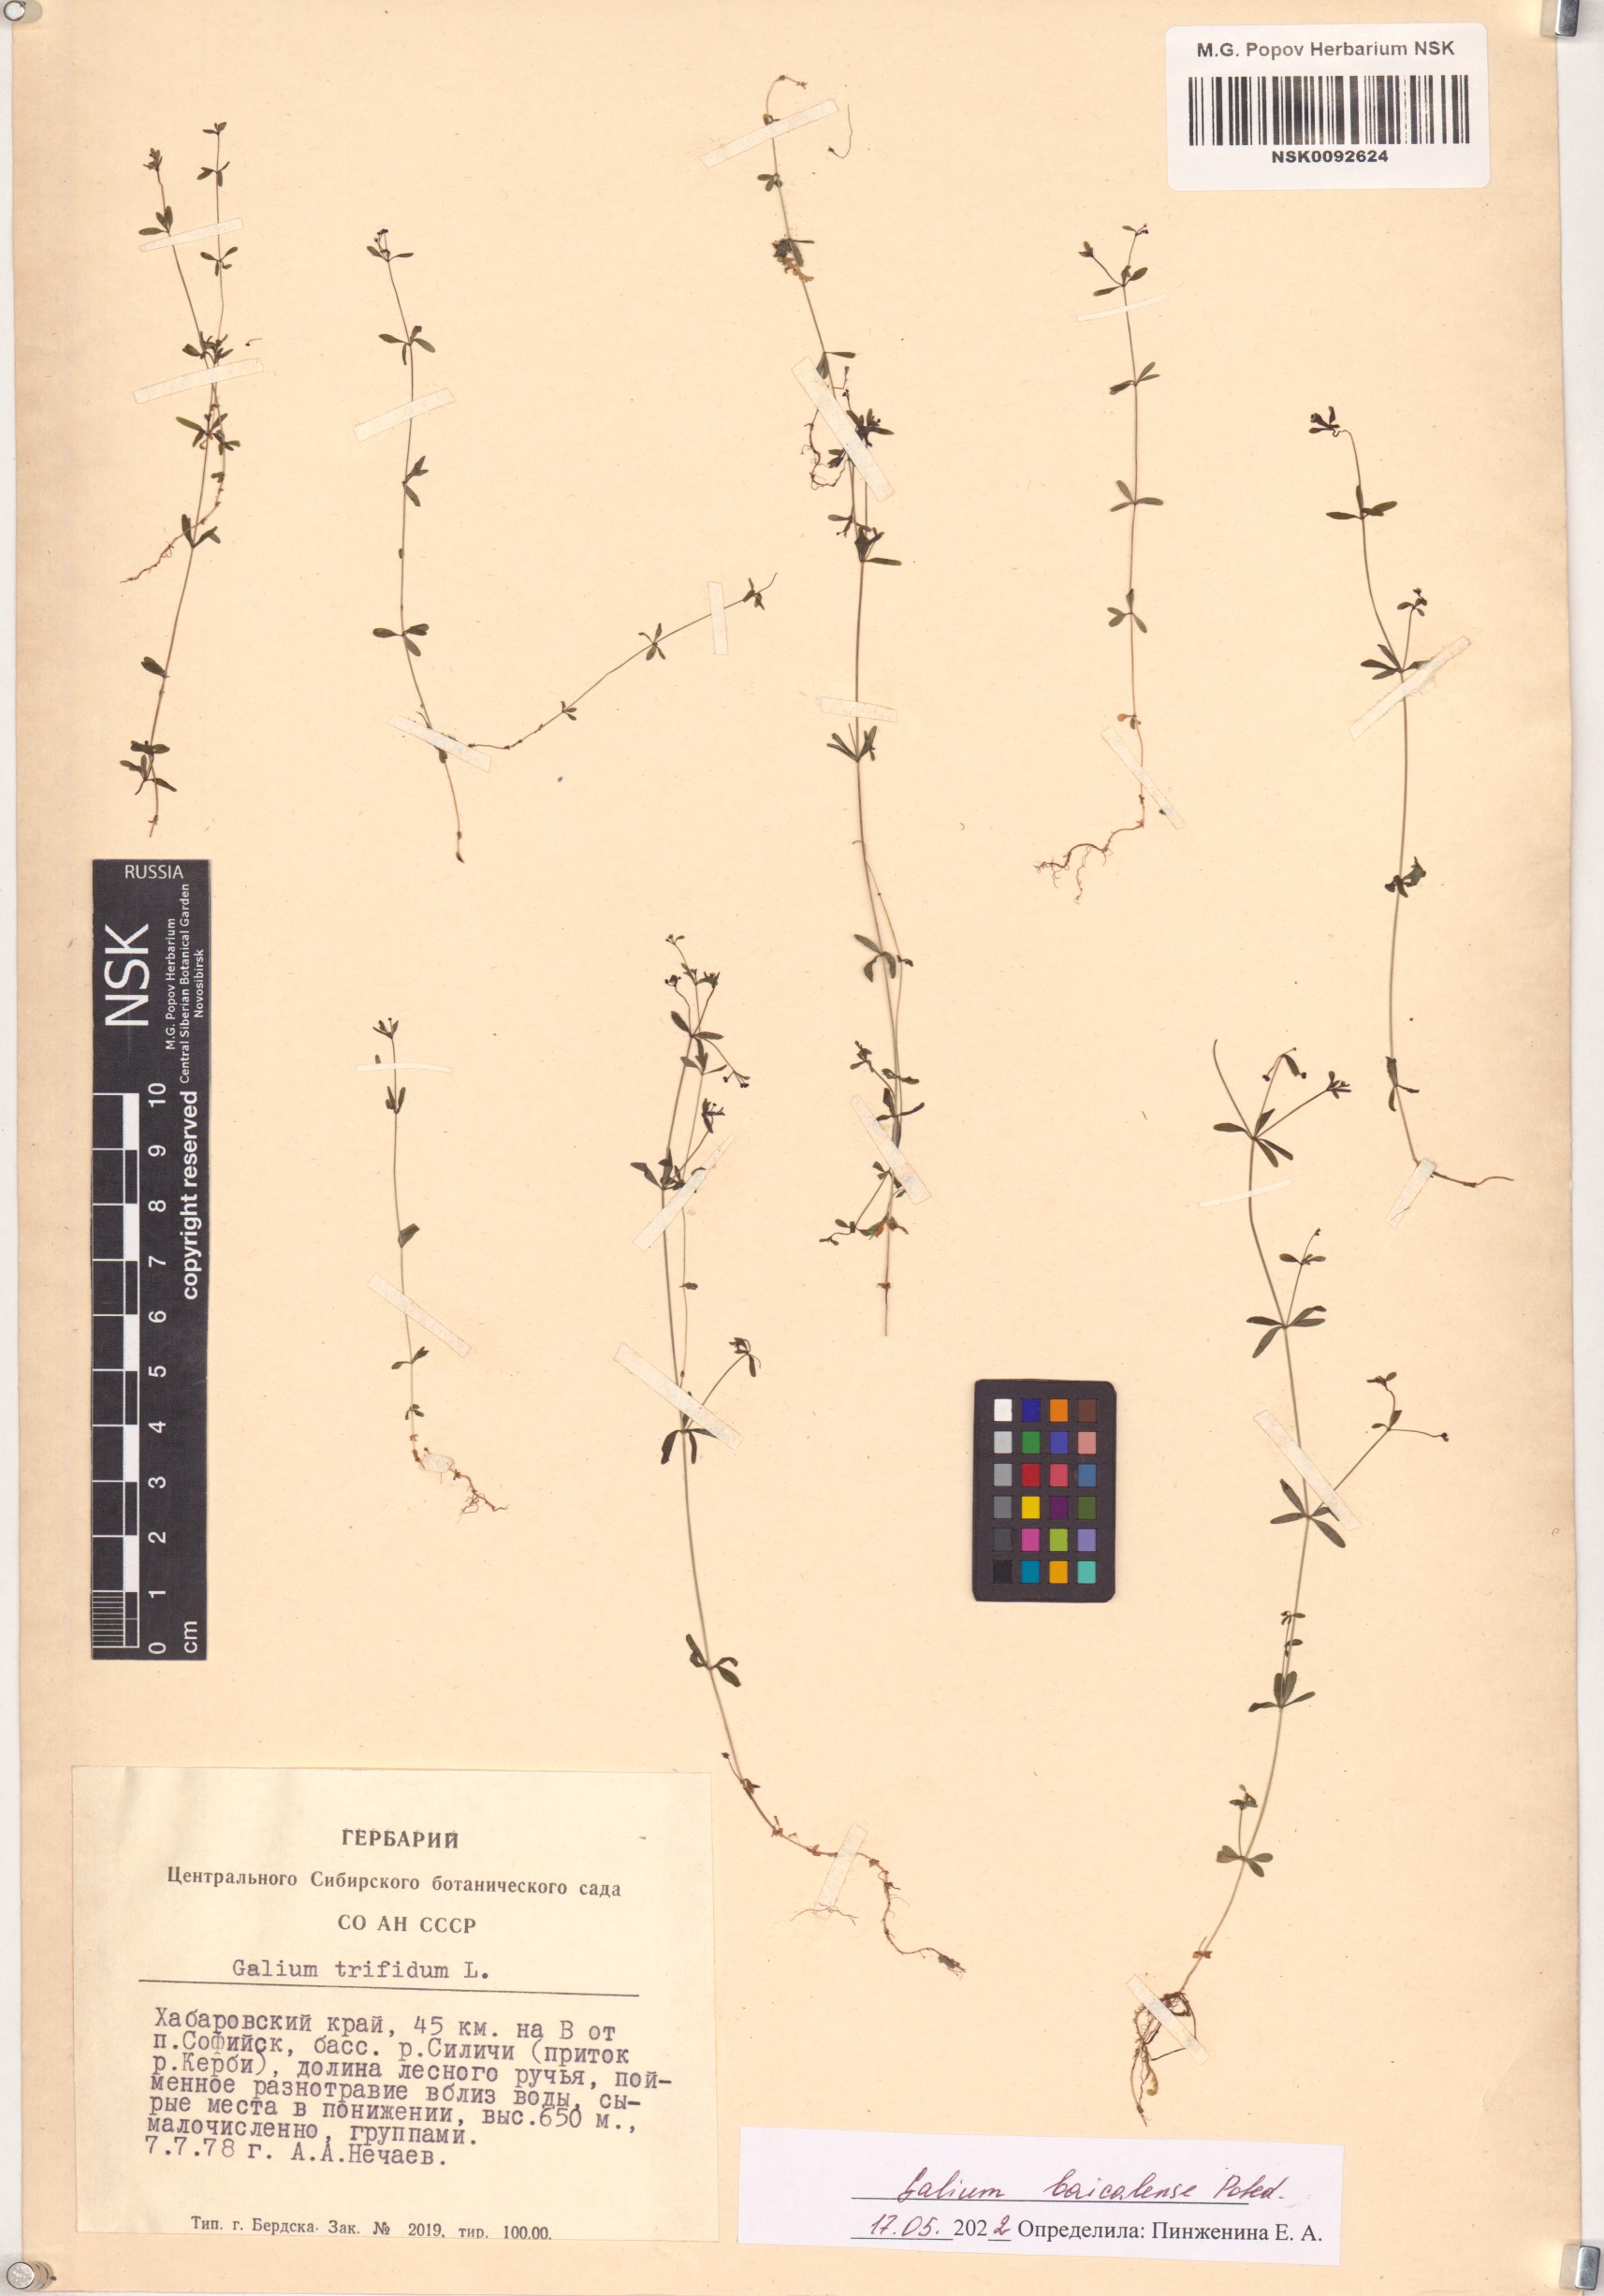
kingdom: Plantae
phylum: Tracheophyta
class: Magnoliopsida
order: Gentianales
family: Rubiaceae
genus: Galium
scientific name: Galium trifidum
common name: Small bedstraw
